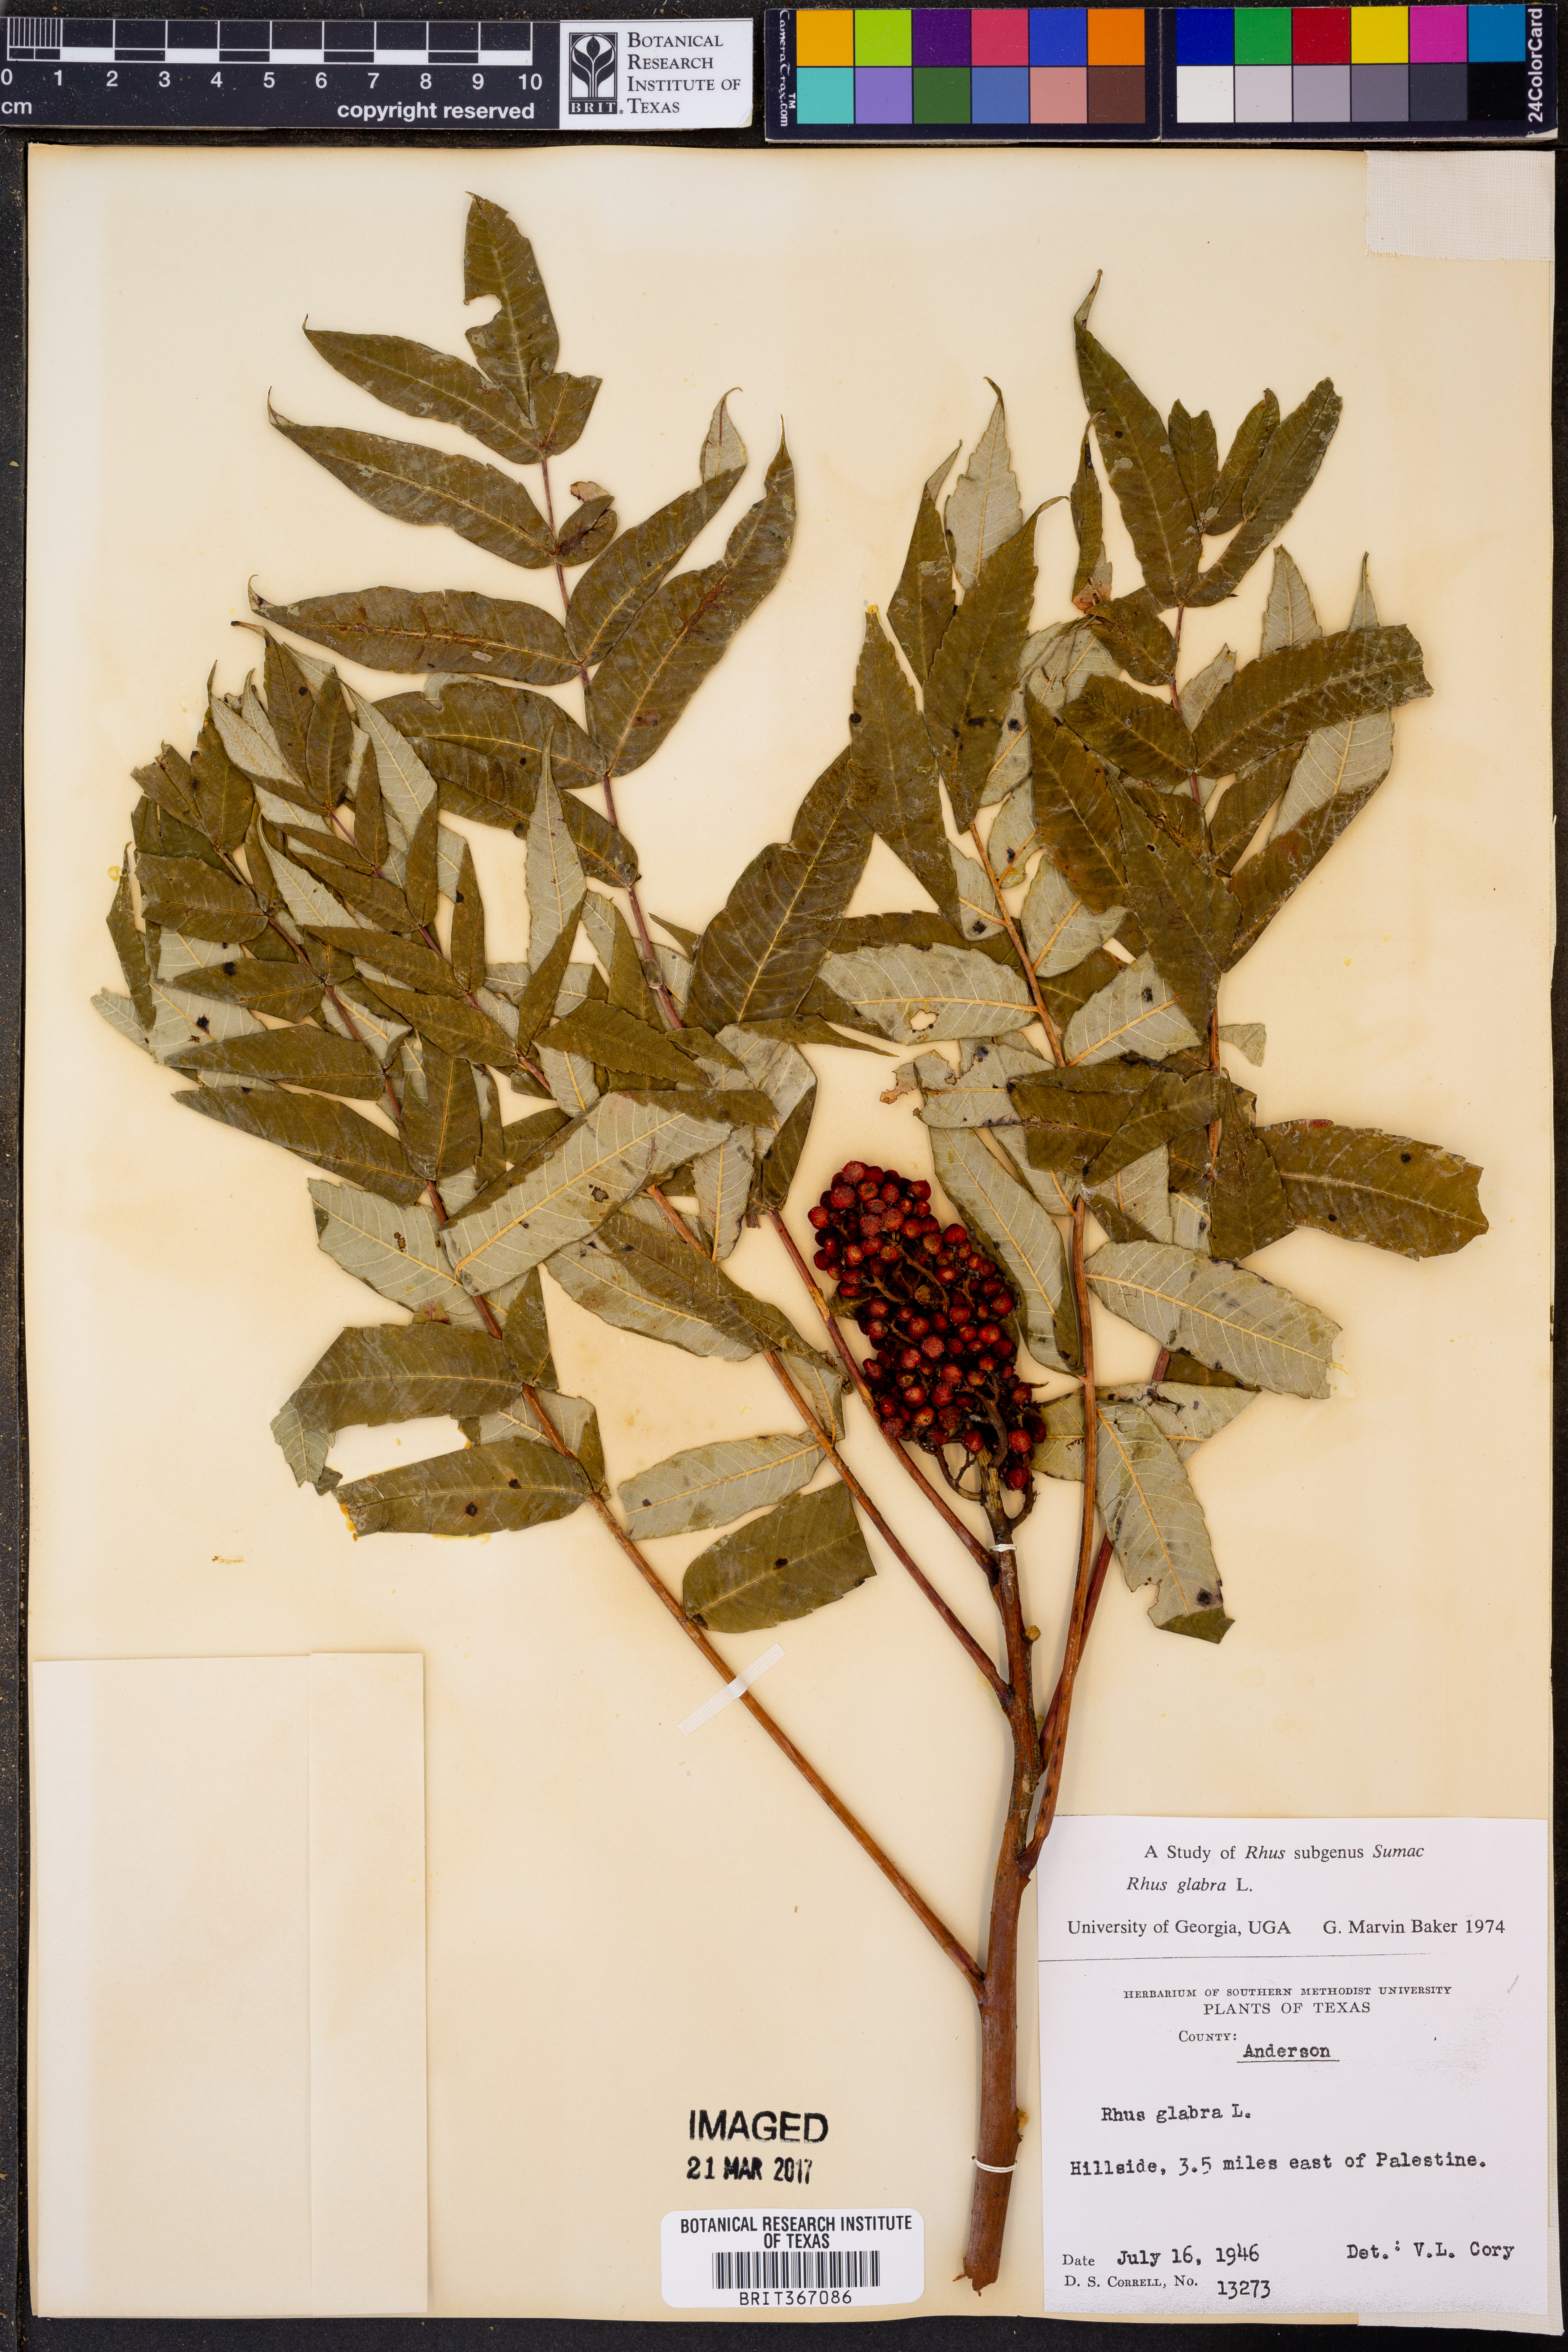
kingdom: Plantae
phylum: Tracheophyta
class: Magnoliopsida
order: Sapindales
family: Anacardiaceae
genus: Rhus
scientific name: Rhus glabra
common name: Scarlet sumac
